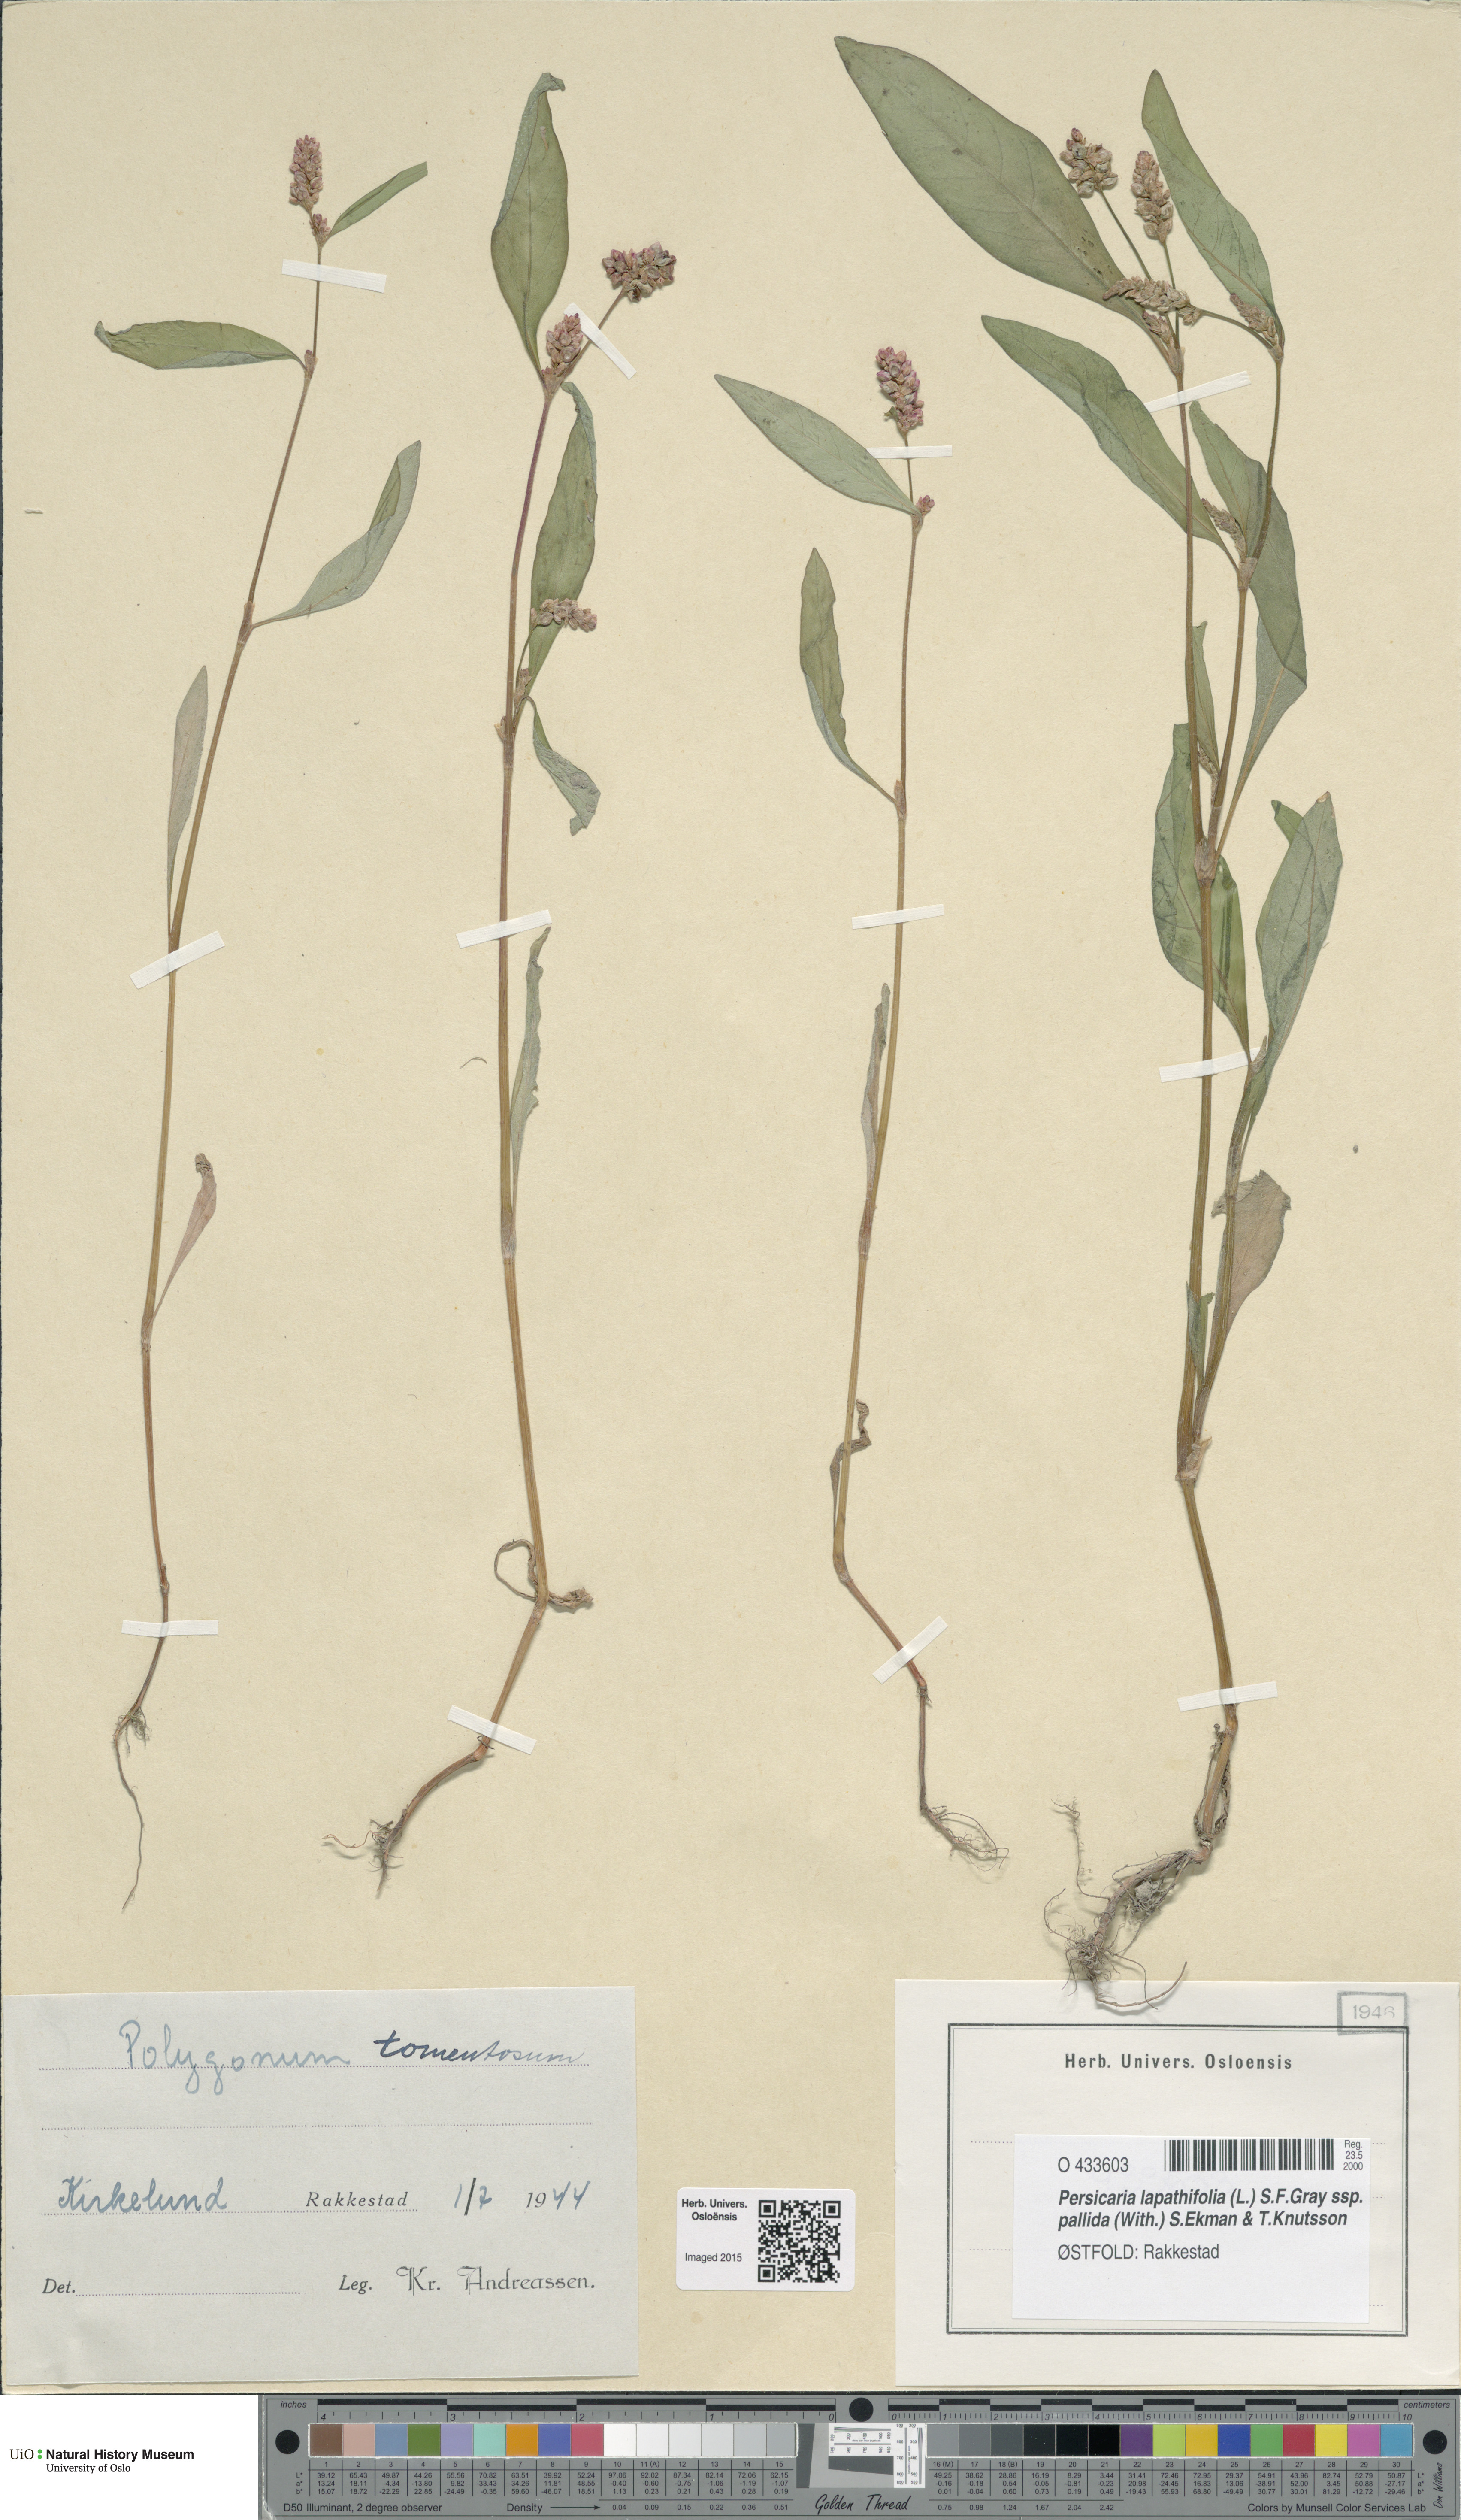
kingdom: Plantae
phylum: Tracheophyta
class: Magnoliopsida
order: Caryophyllales
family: Polygonaceae
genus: Persicaria
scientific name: Persicaria lapathifolia
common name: Curlytop knotweed
